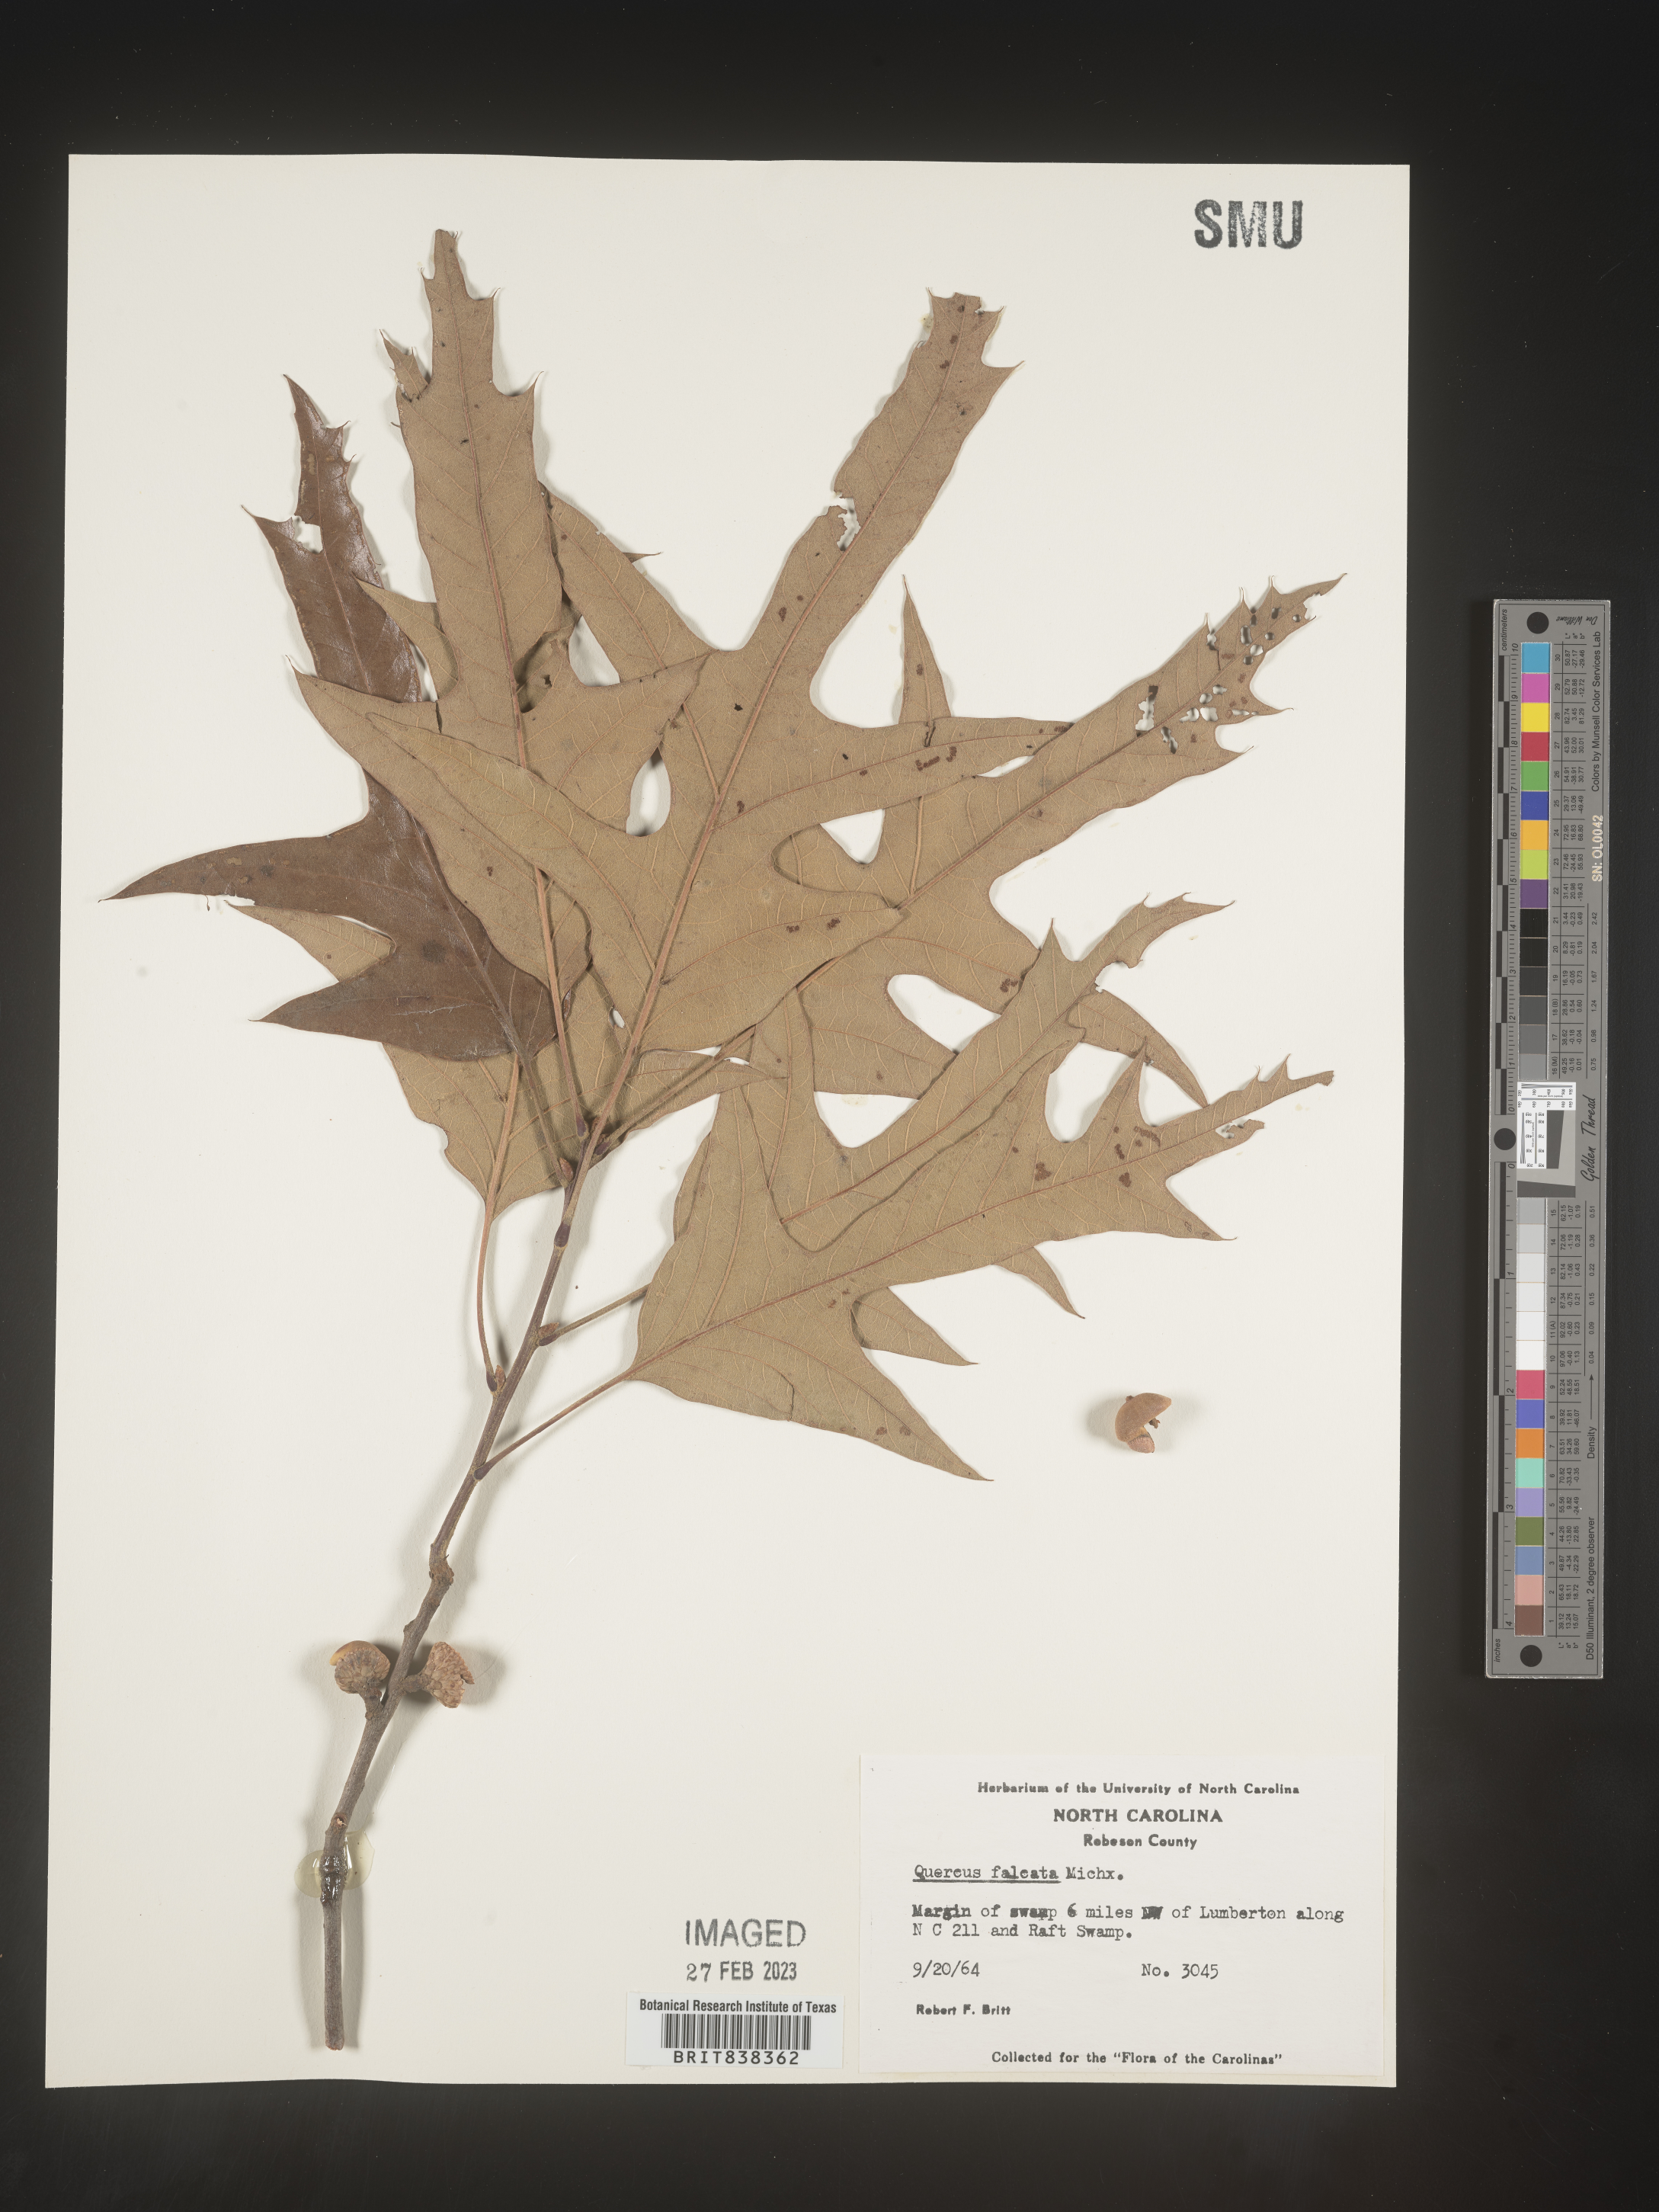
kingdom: Plantae
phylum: Tracheophyta
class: Magnoliopsida
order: Fagales
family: Fagaceae
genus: Quercus
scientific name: Quercus falcata
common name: Southern red oak
